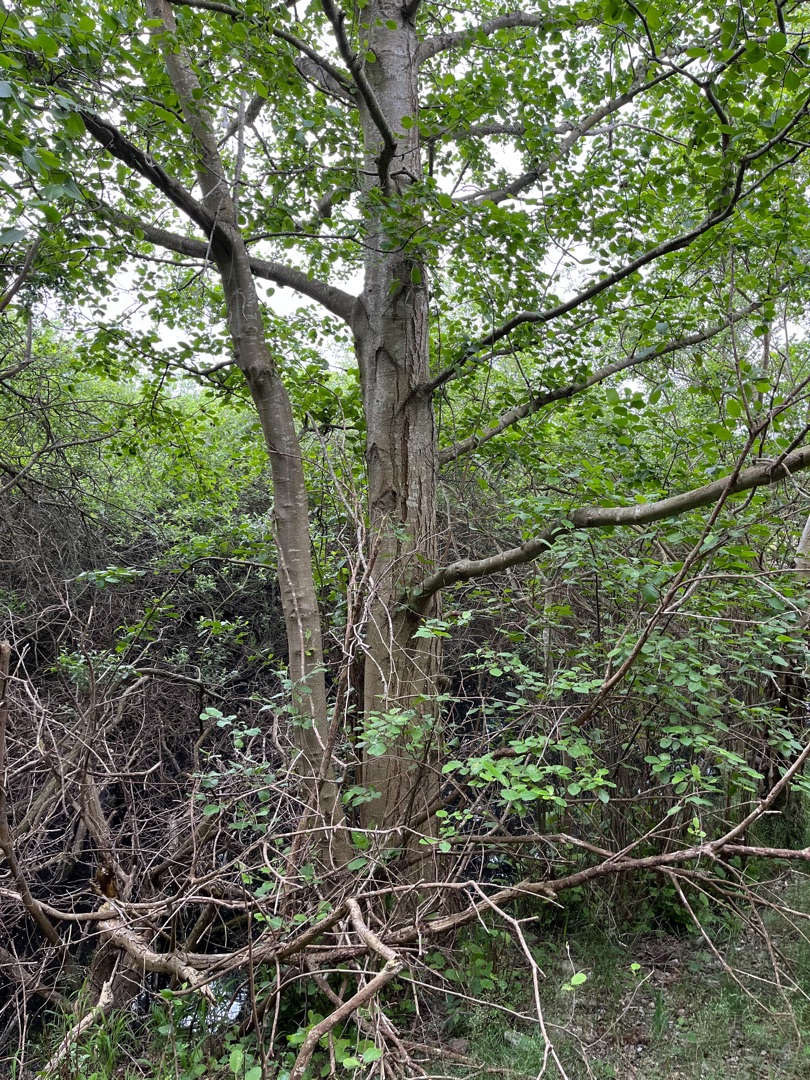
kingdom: Plantae
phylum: Tracheophyta
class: Magnoliopsida
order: Fagales
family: Betulaceae
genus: Alnus
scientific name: Alnus
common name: Elleslægten
